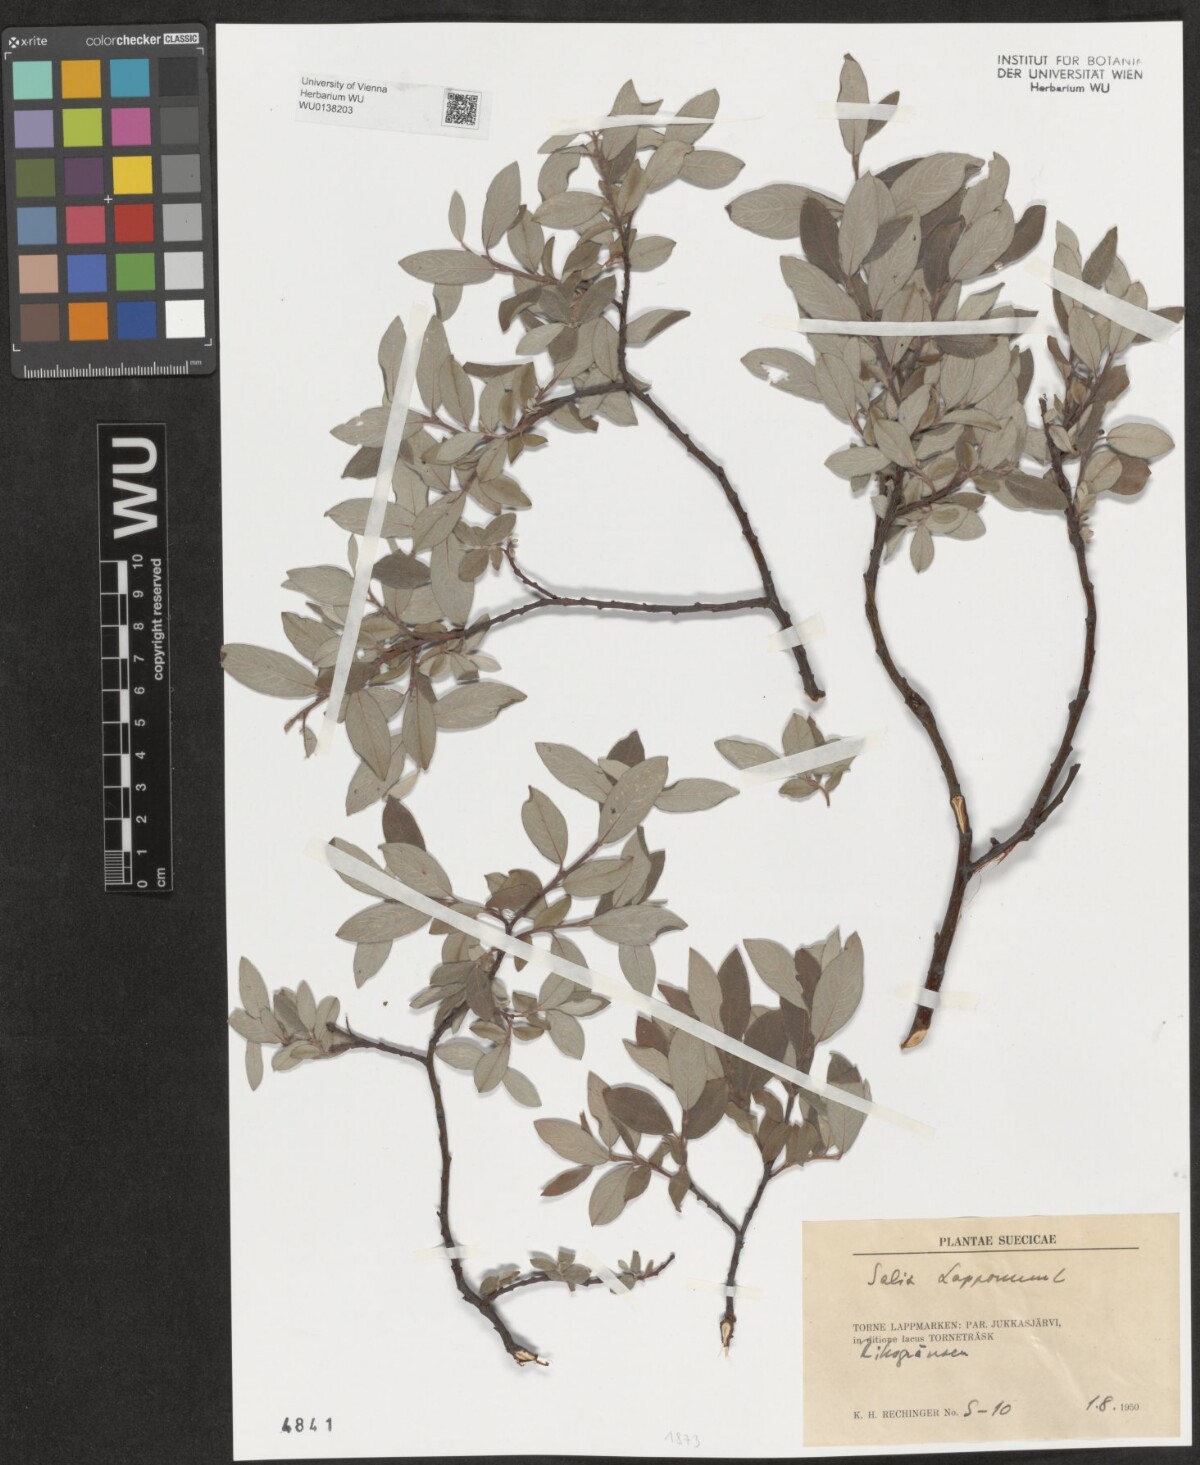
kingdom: Plantae
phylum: Tracheophyta
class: Magnoliopsida
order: Malpighiales
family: Salicaceae
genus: Salix
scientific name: Salix lapponum
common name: Downy willow
